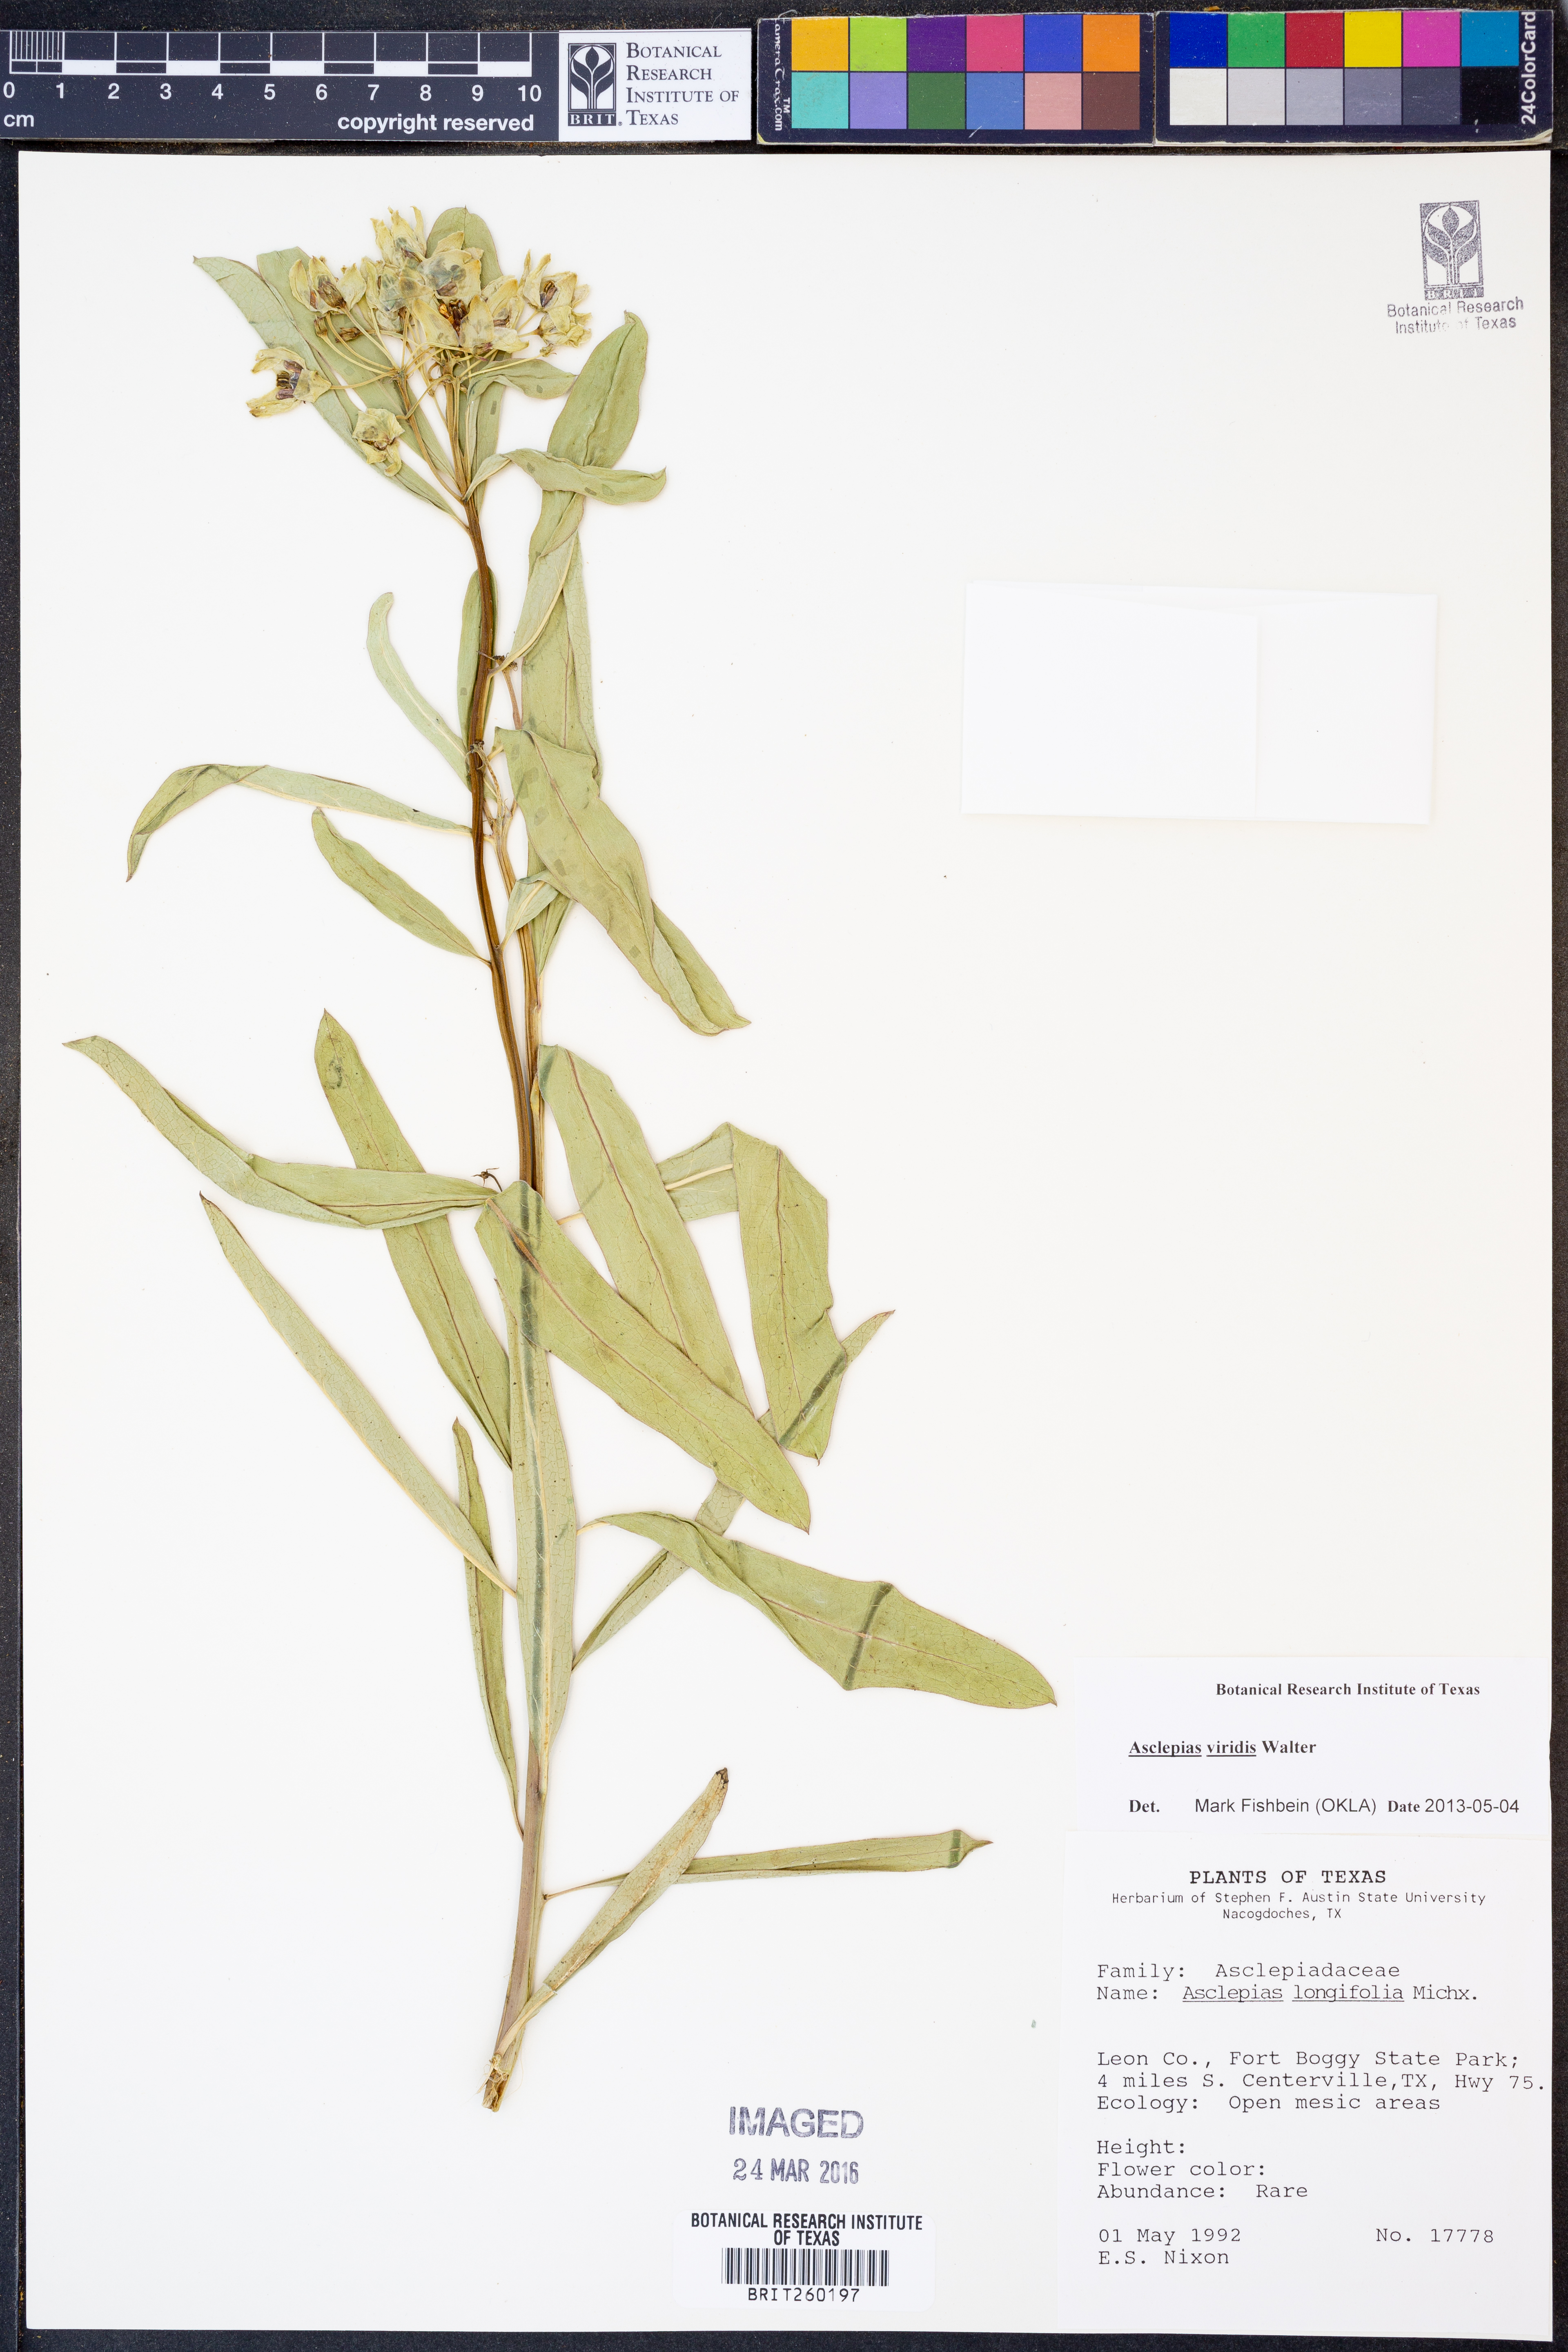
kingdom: Plantae
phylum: Tracheophyta
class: Magnoliopsida
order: Gentianales
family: Apocynaceae
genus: Asclepias
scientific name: Asclepias viridis
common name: Antelope-horns
